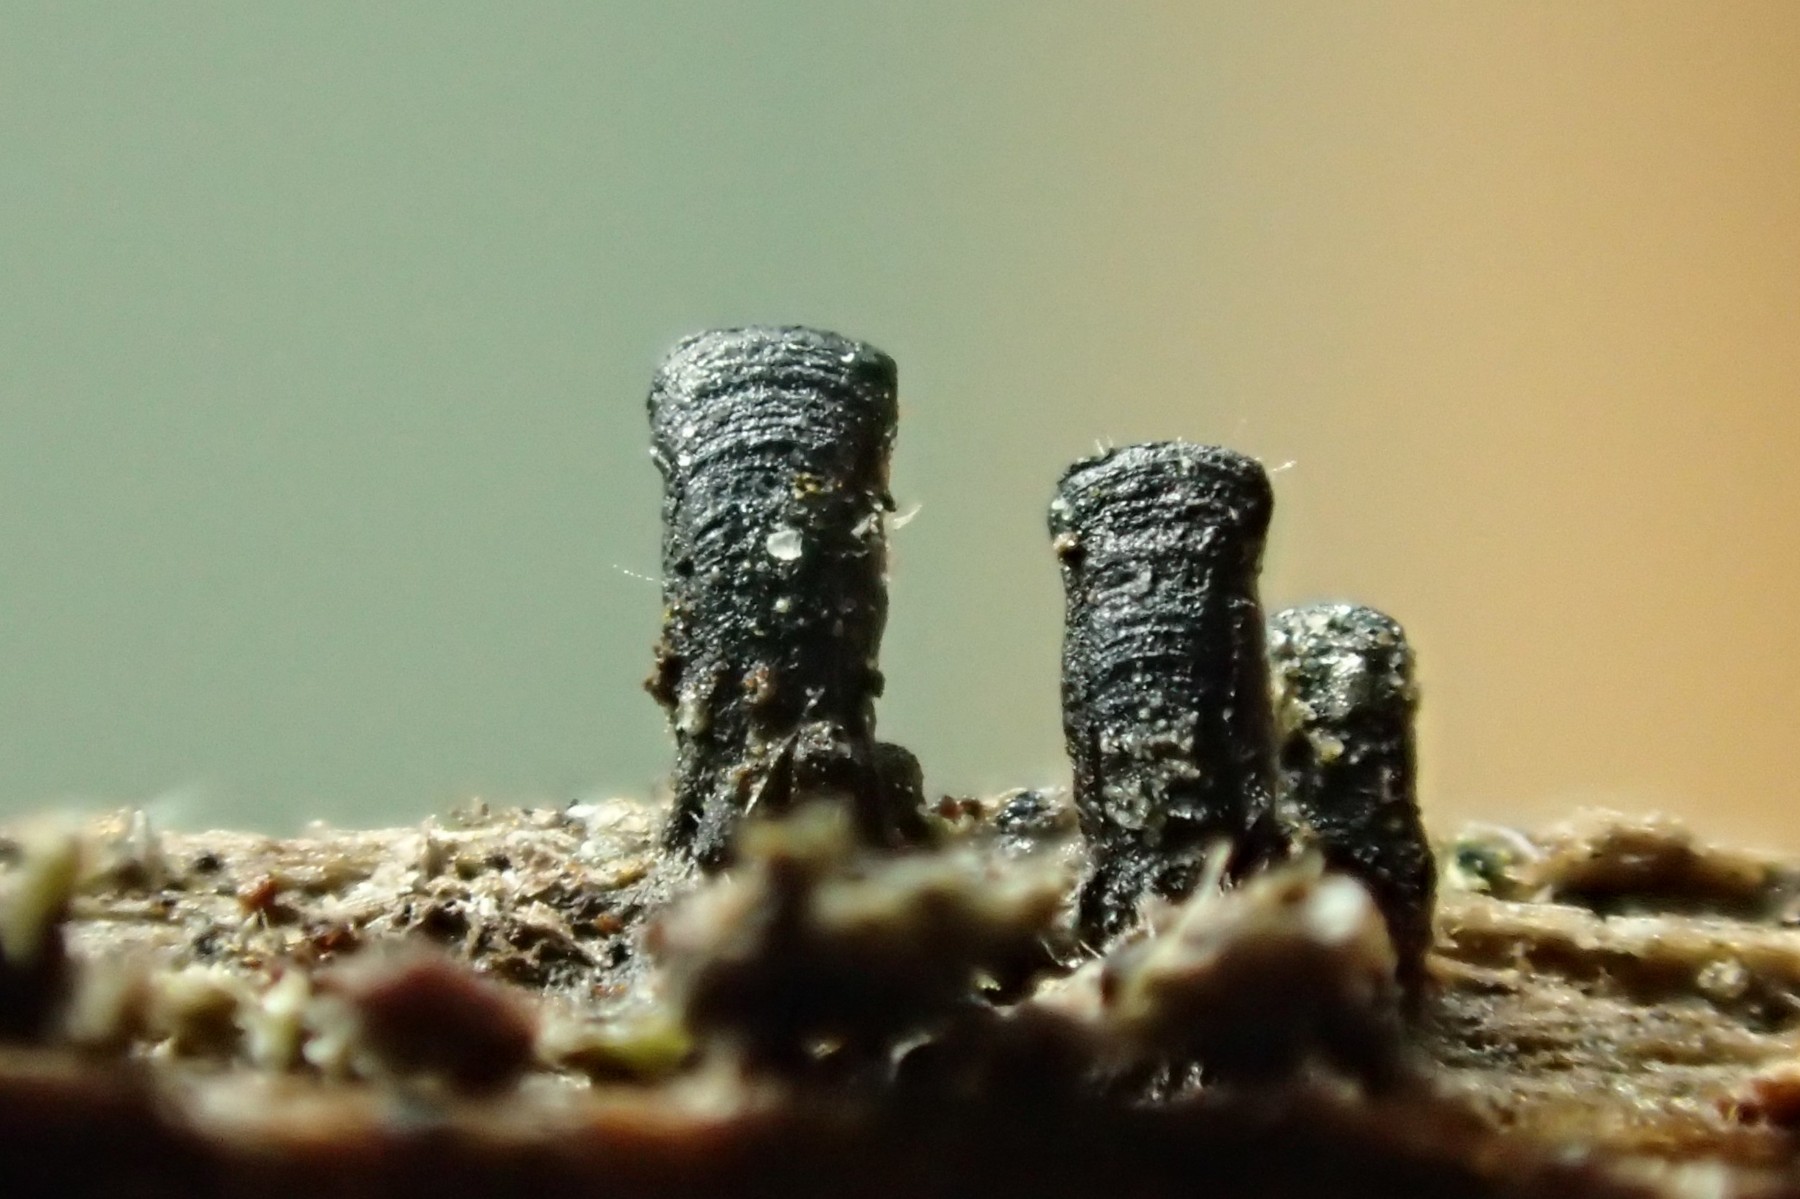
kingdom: Fungi
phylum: Ascomycota
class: Eurotiomycetes
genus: Glyphium
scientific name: Glyphium elatum
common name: kuløkse
